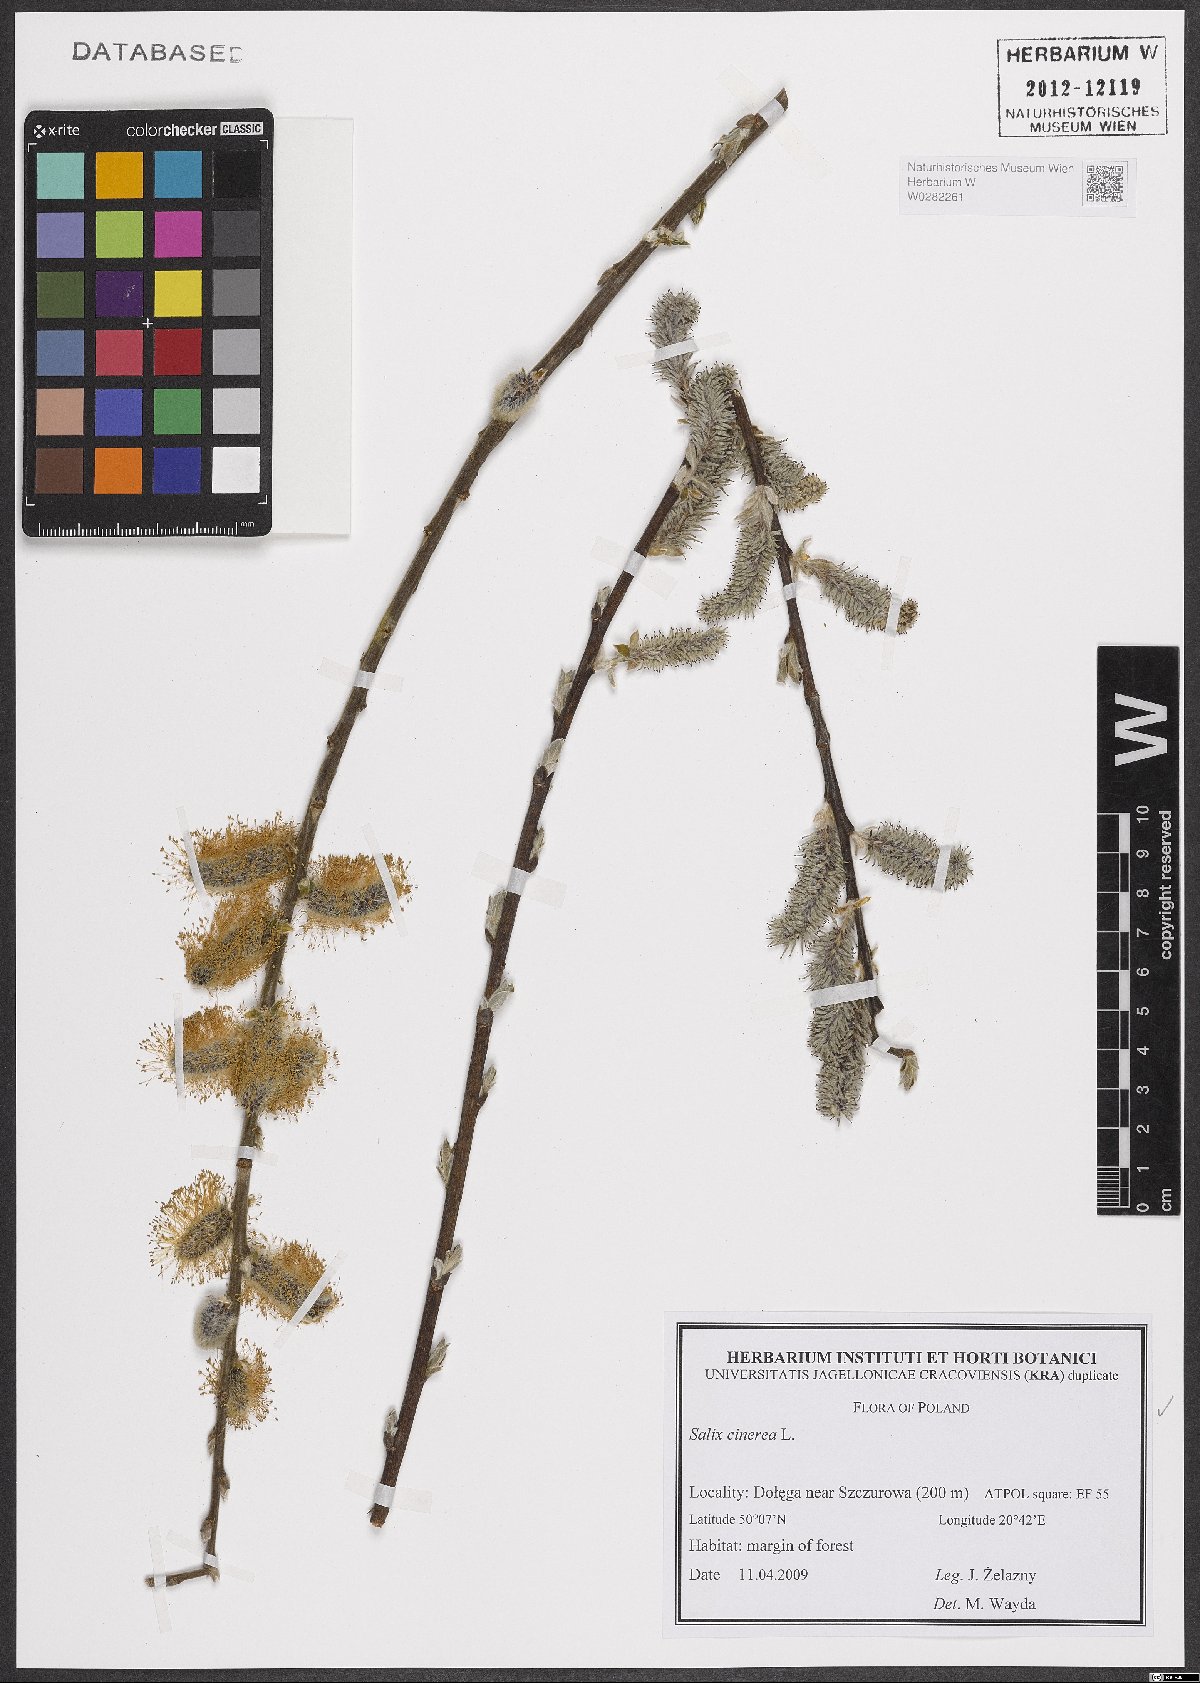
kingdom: Plantae
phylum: Tracheophyta
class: Magnoliopsida
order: Malpighiales
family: Salicaceae
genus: Salix
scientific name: Salix cinerea
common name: Common sallow
